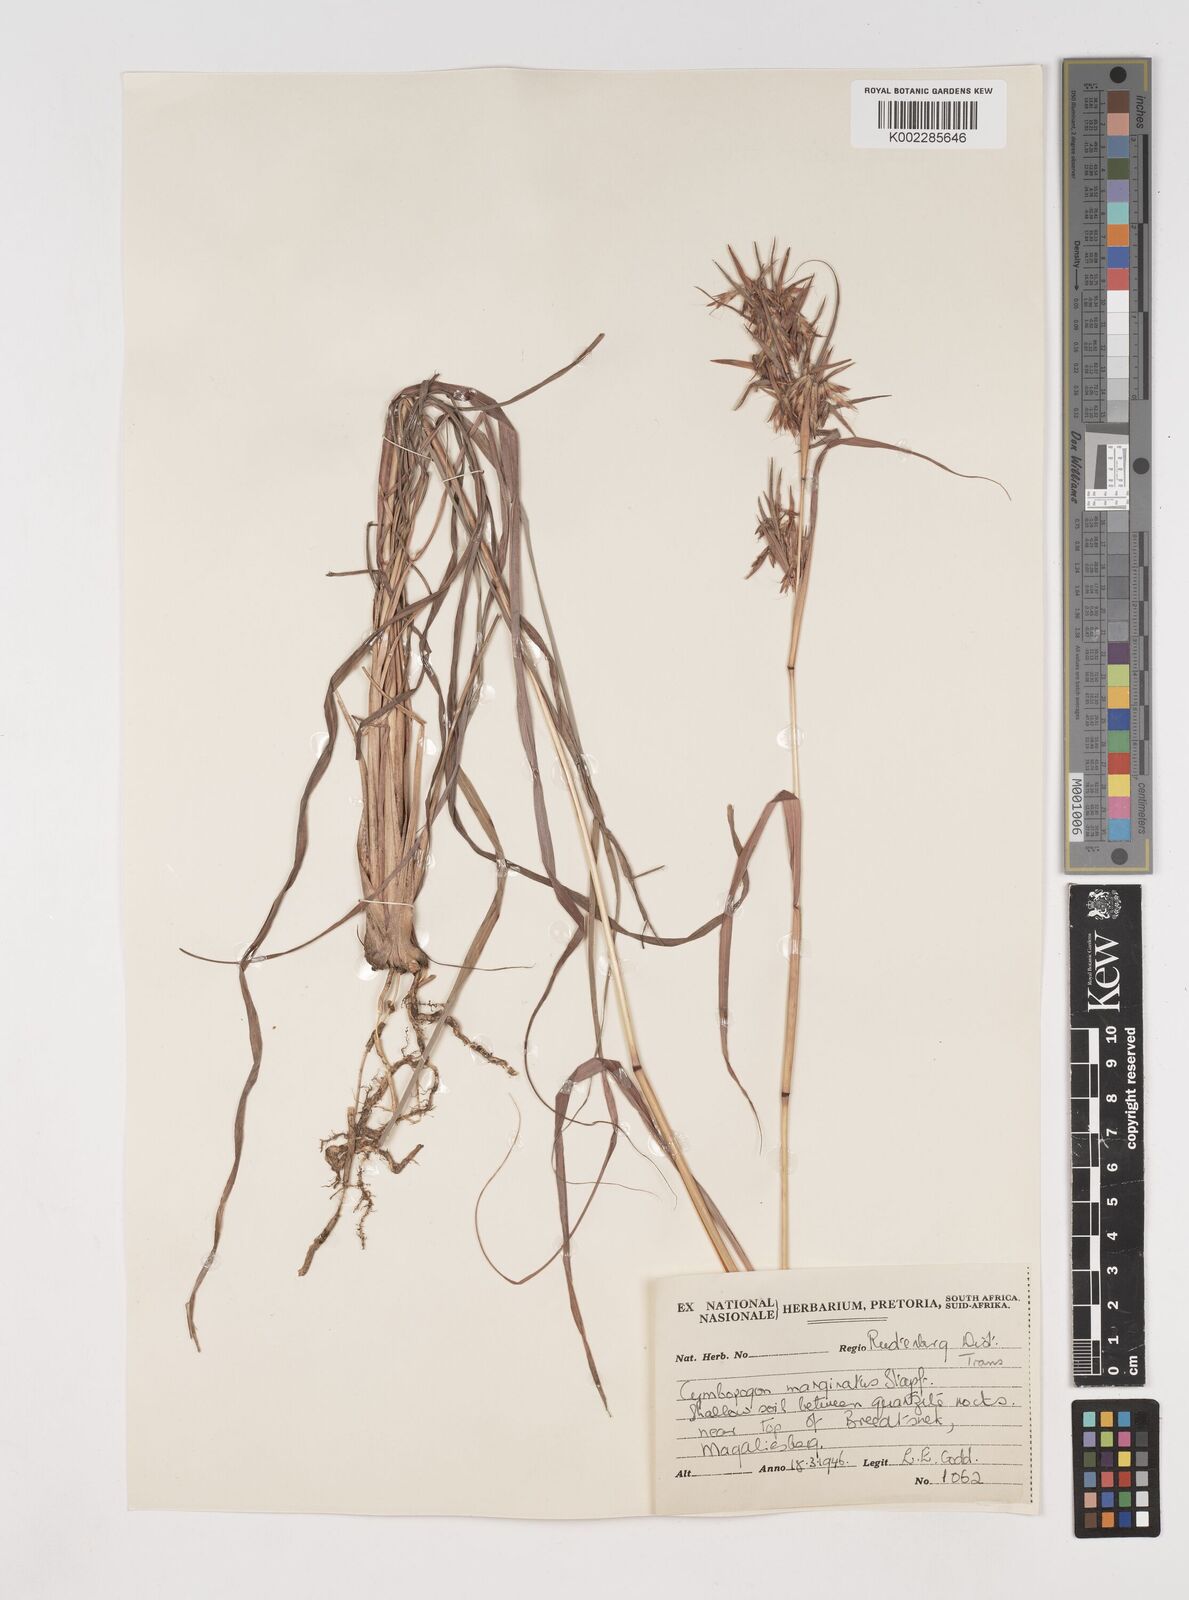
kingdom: Plantae
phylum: Tracheophyta
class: Liliopsida
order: Poales
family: Poaceae
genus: Cymbopogon
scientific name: Cymbopogon marginatus
